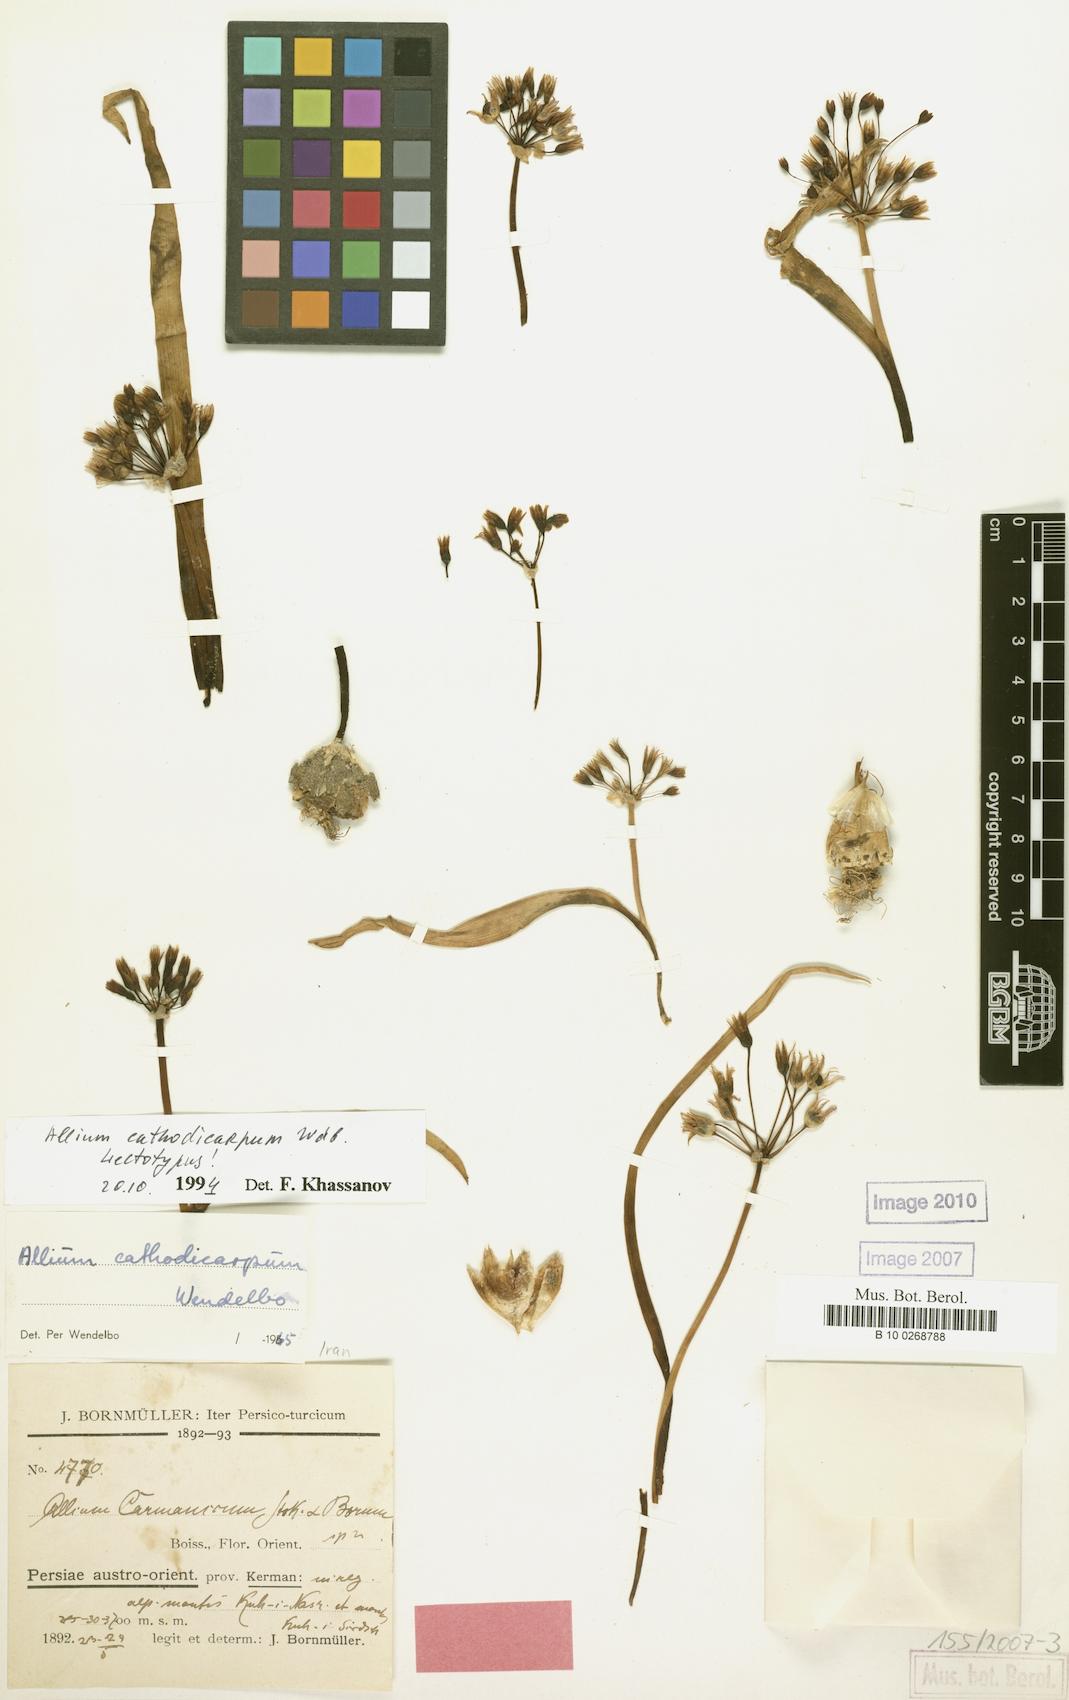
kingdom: Plantae
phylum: Tracheophyta
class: Liliopsida
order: Asparagales
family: Amaryllidaceae
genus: Allium
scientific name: Allium cathodicarpum
